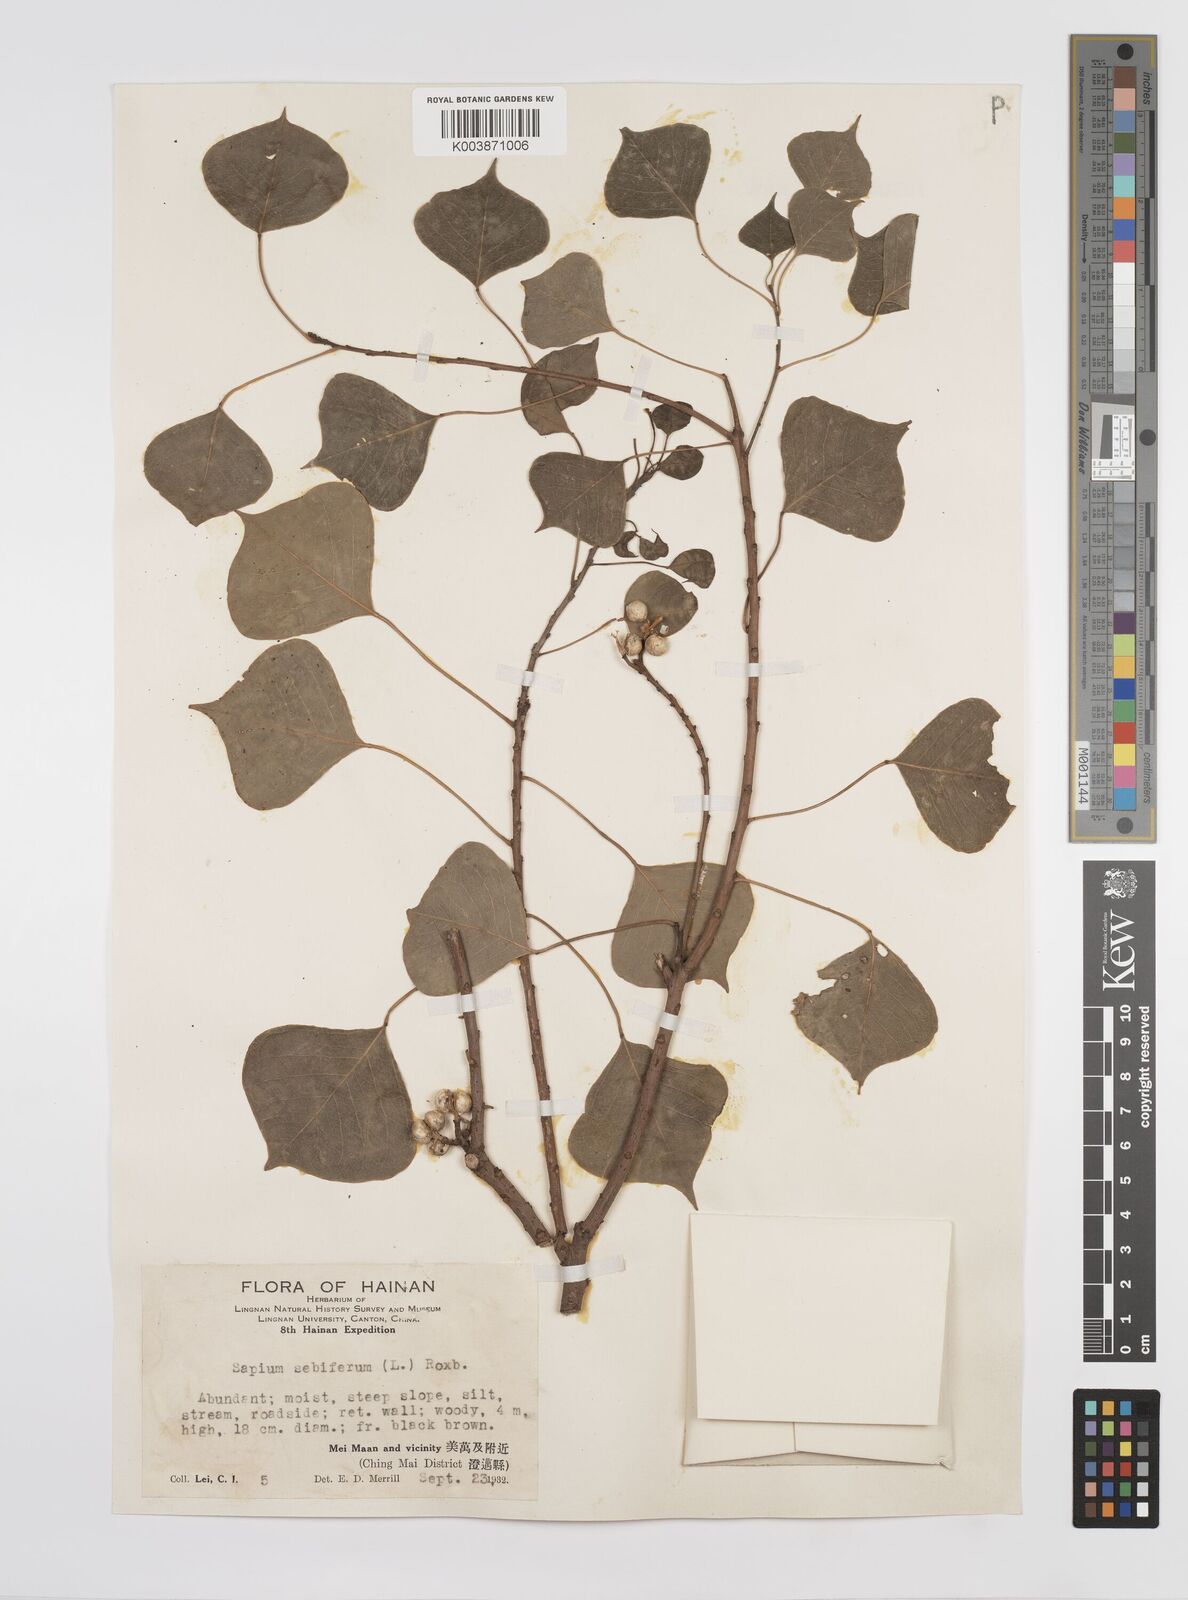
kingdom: Plantae
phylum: Tracheophyta
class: Magnoliopsida
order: Malpighiales
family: Euphorbiaceae
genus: Triadica
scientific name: Triadica sebifera
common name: Chinese tallow
